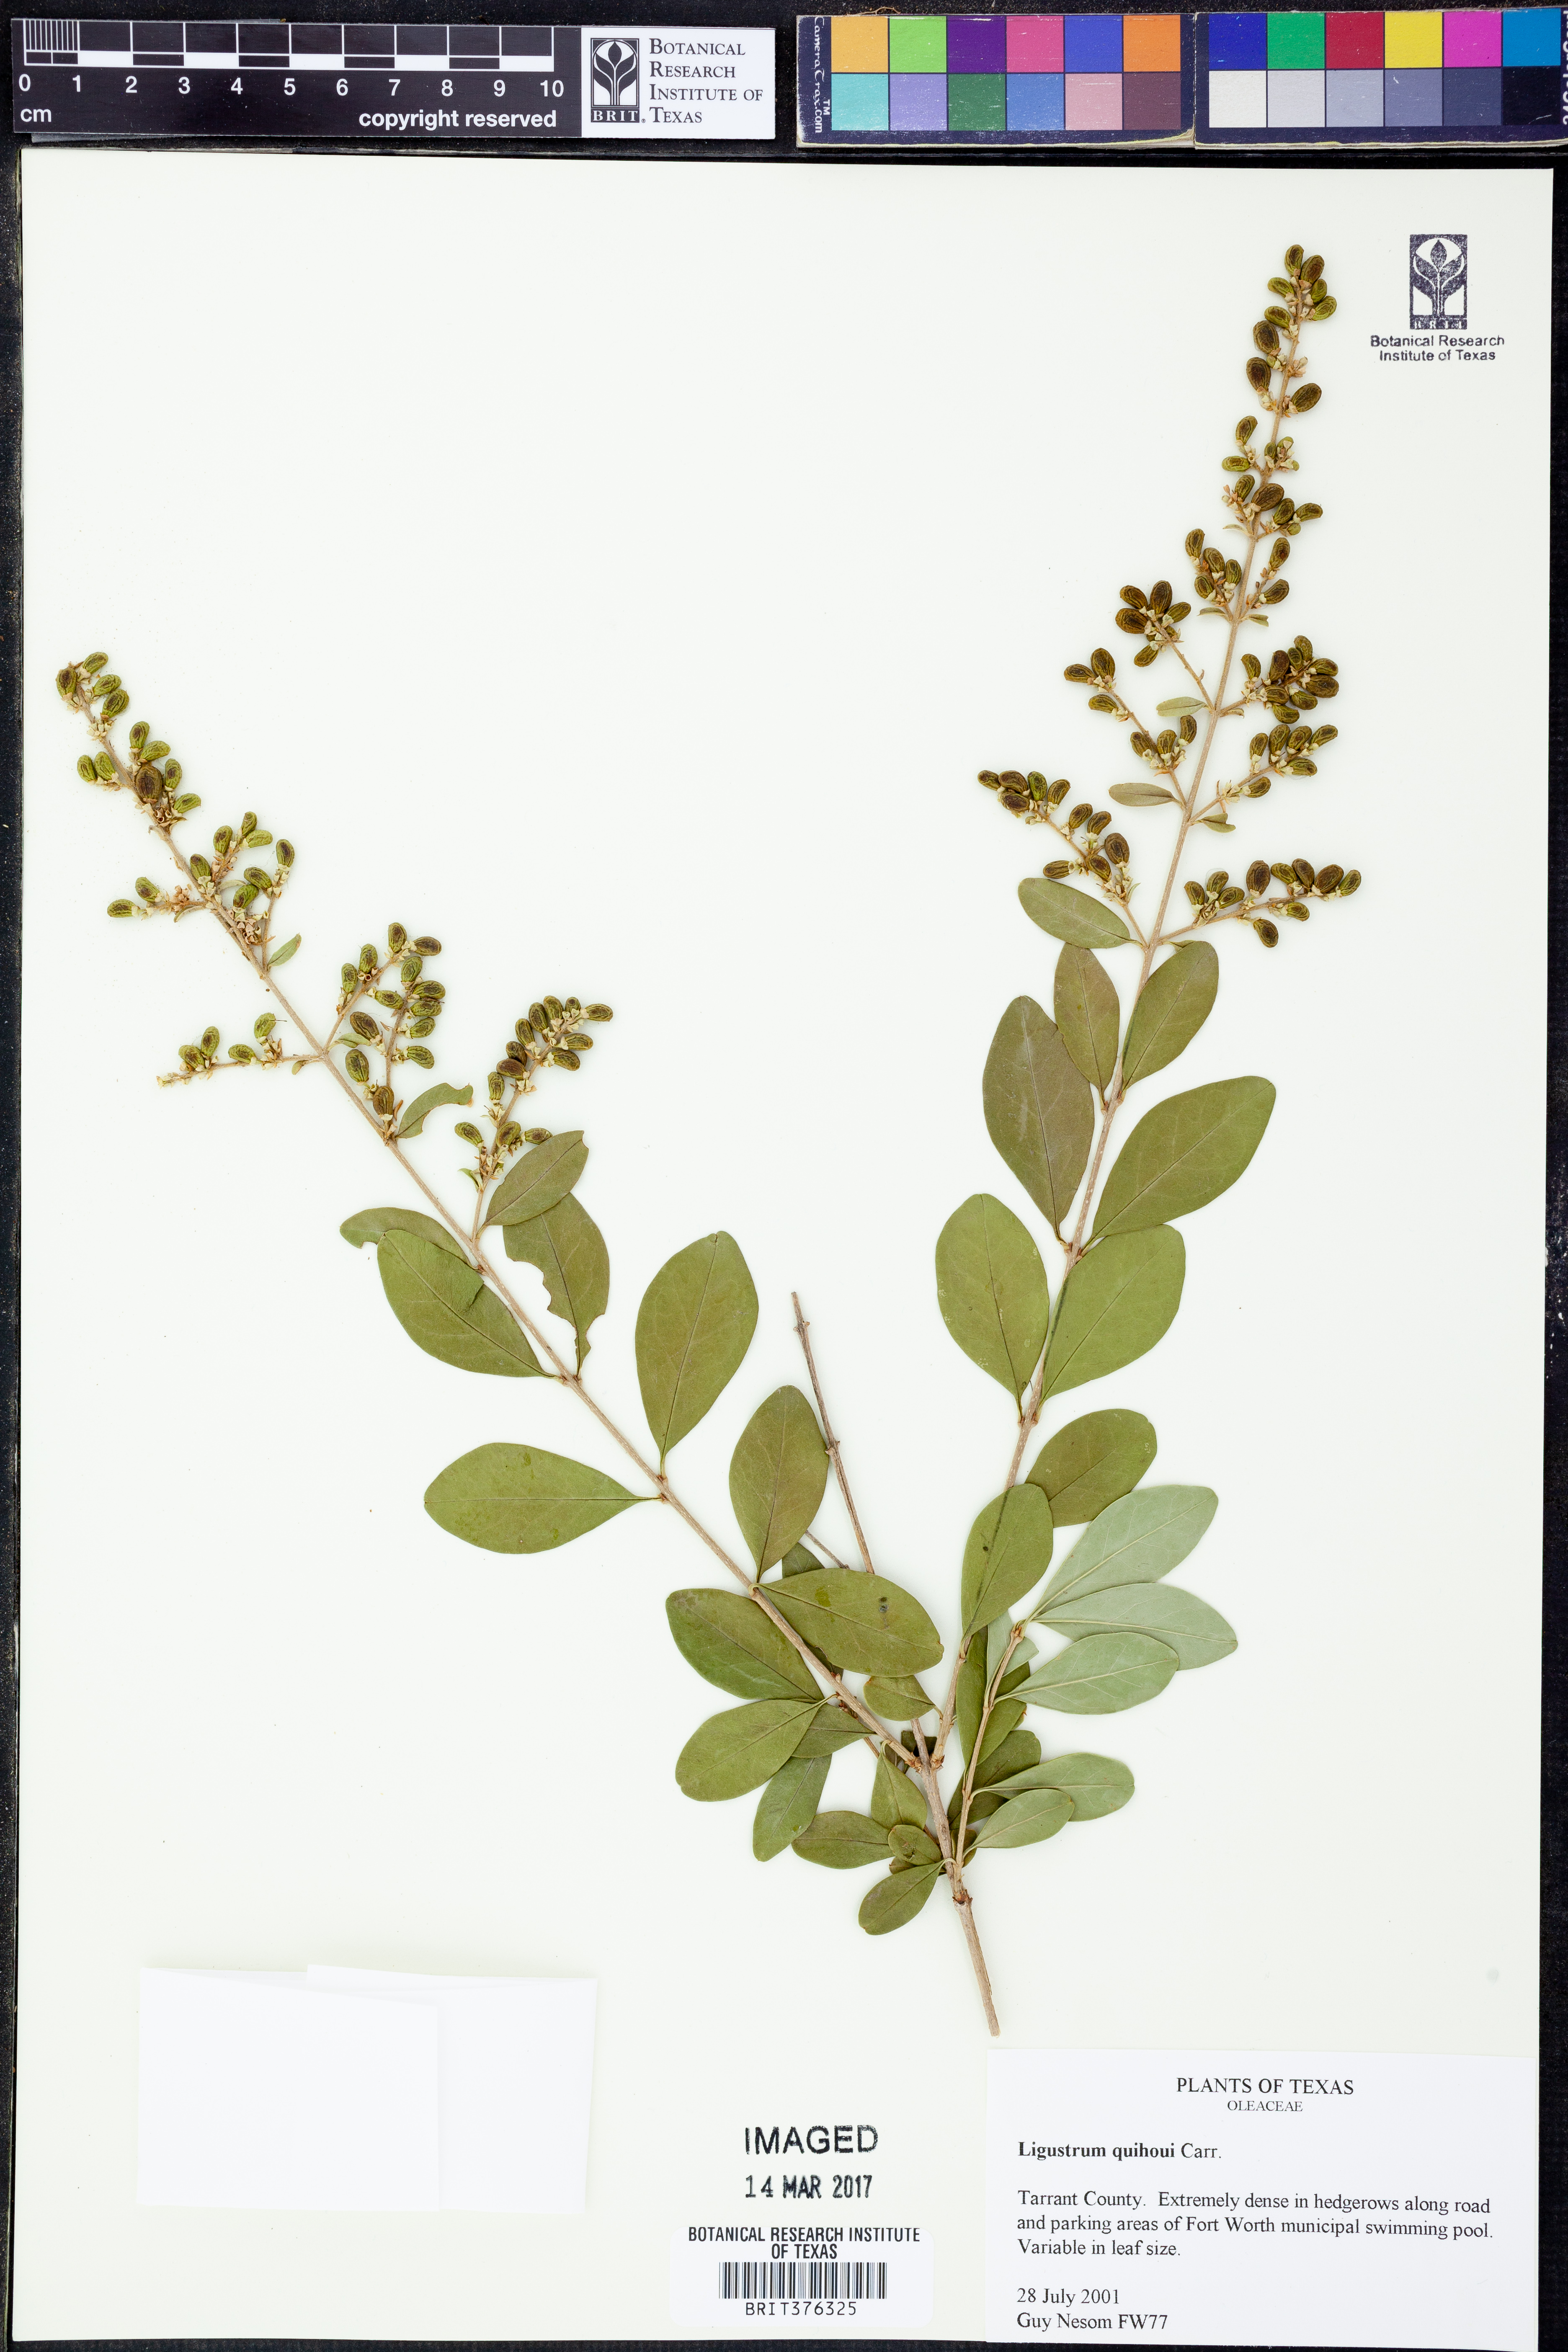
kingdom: Plantae
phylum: Tracheophyta
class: Magnoliopsida
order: Lamiales
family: Oleaceae
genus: Ligustrum
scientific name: Ligustrum quihoui
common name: Waxyleaf privet
